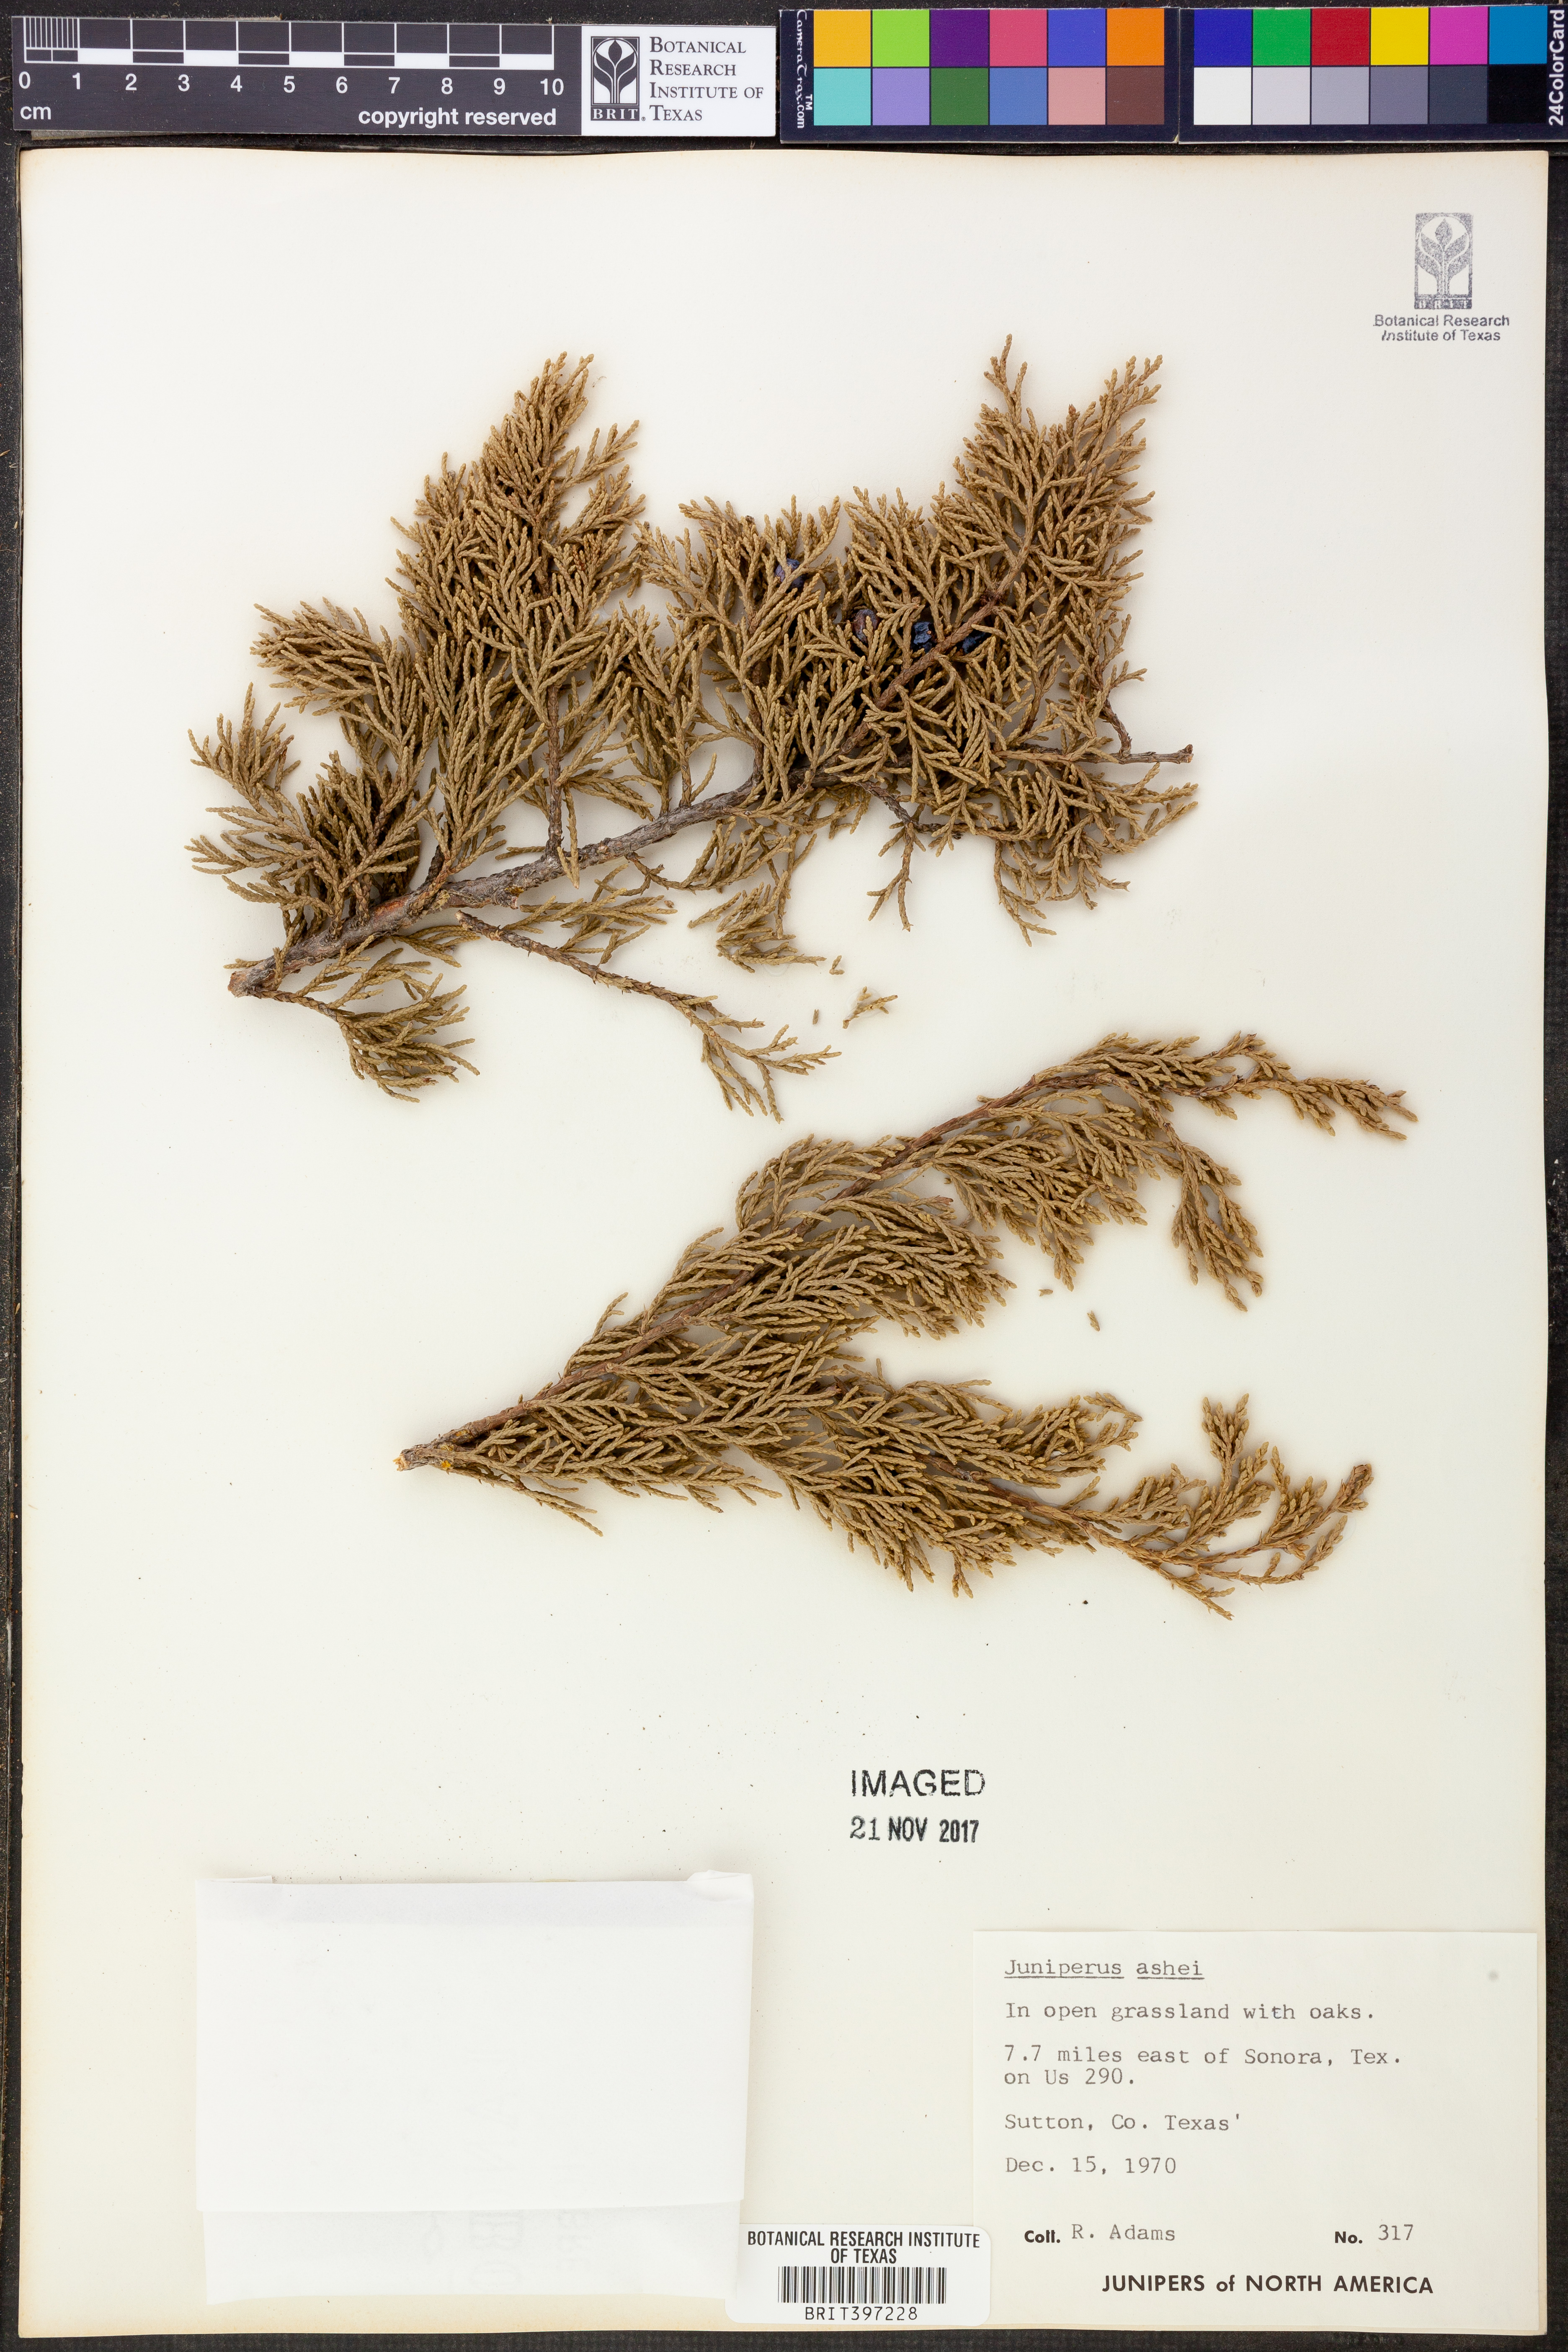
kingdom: Plantae
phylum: Tracheophyta
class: Pinopsida
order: Pinales
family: Cupressaceae
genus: Juniperus
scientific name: Juniperus ashei
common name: Mexican juniper
